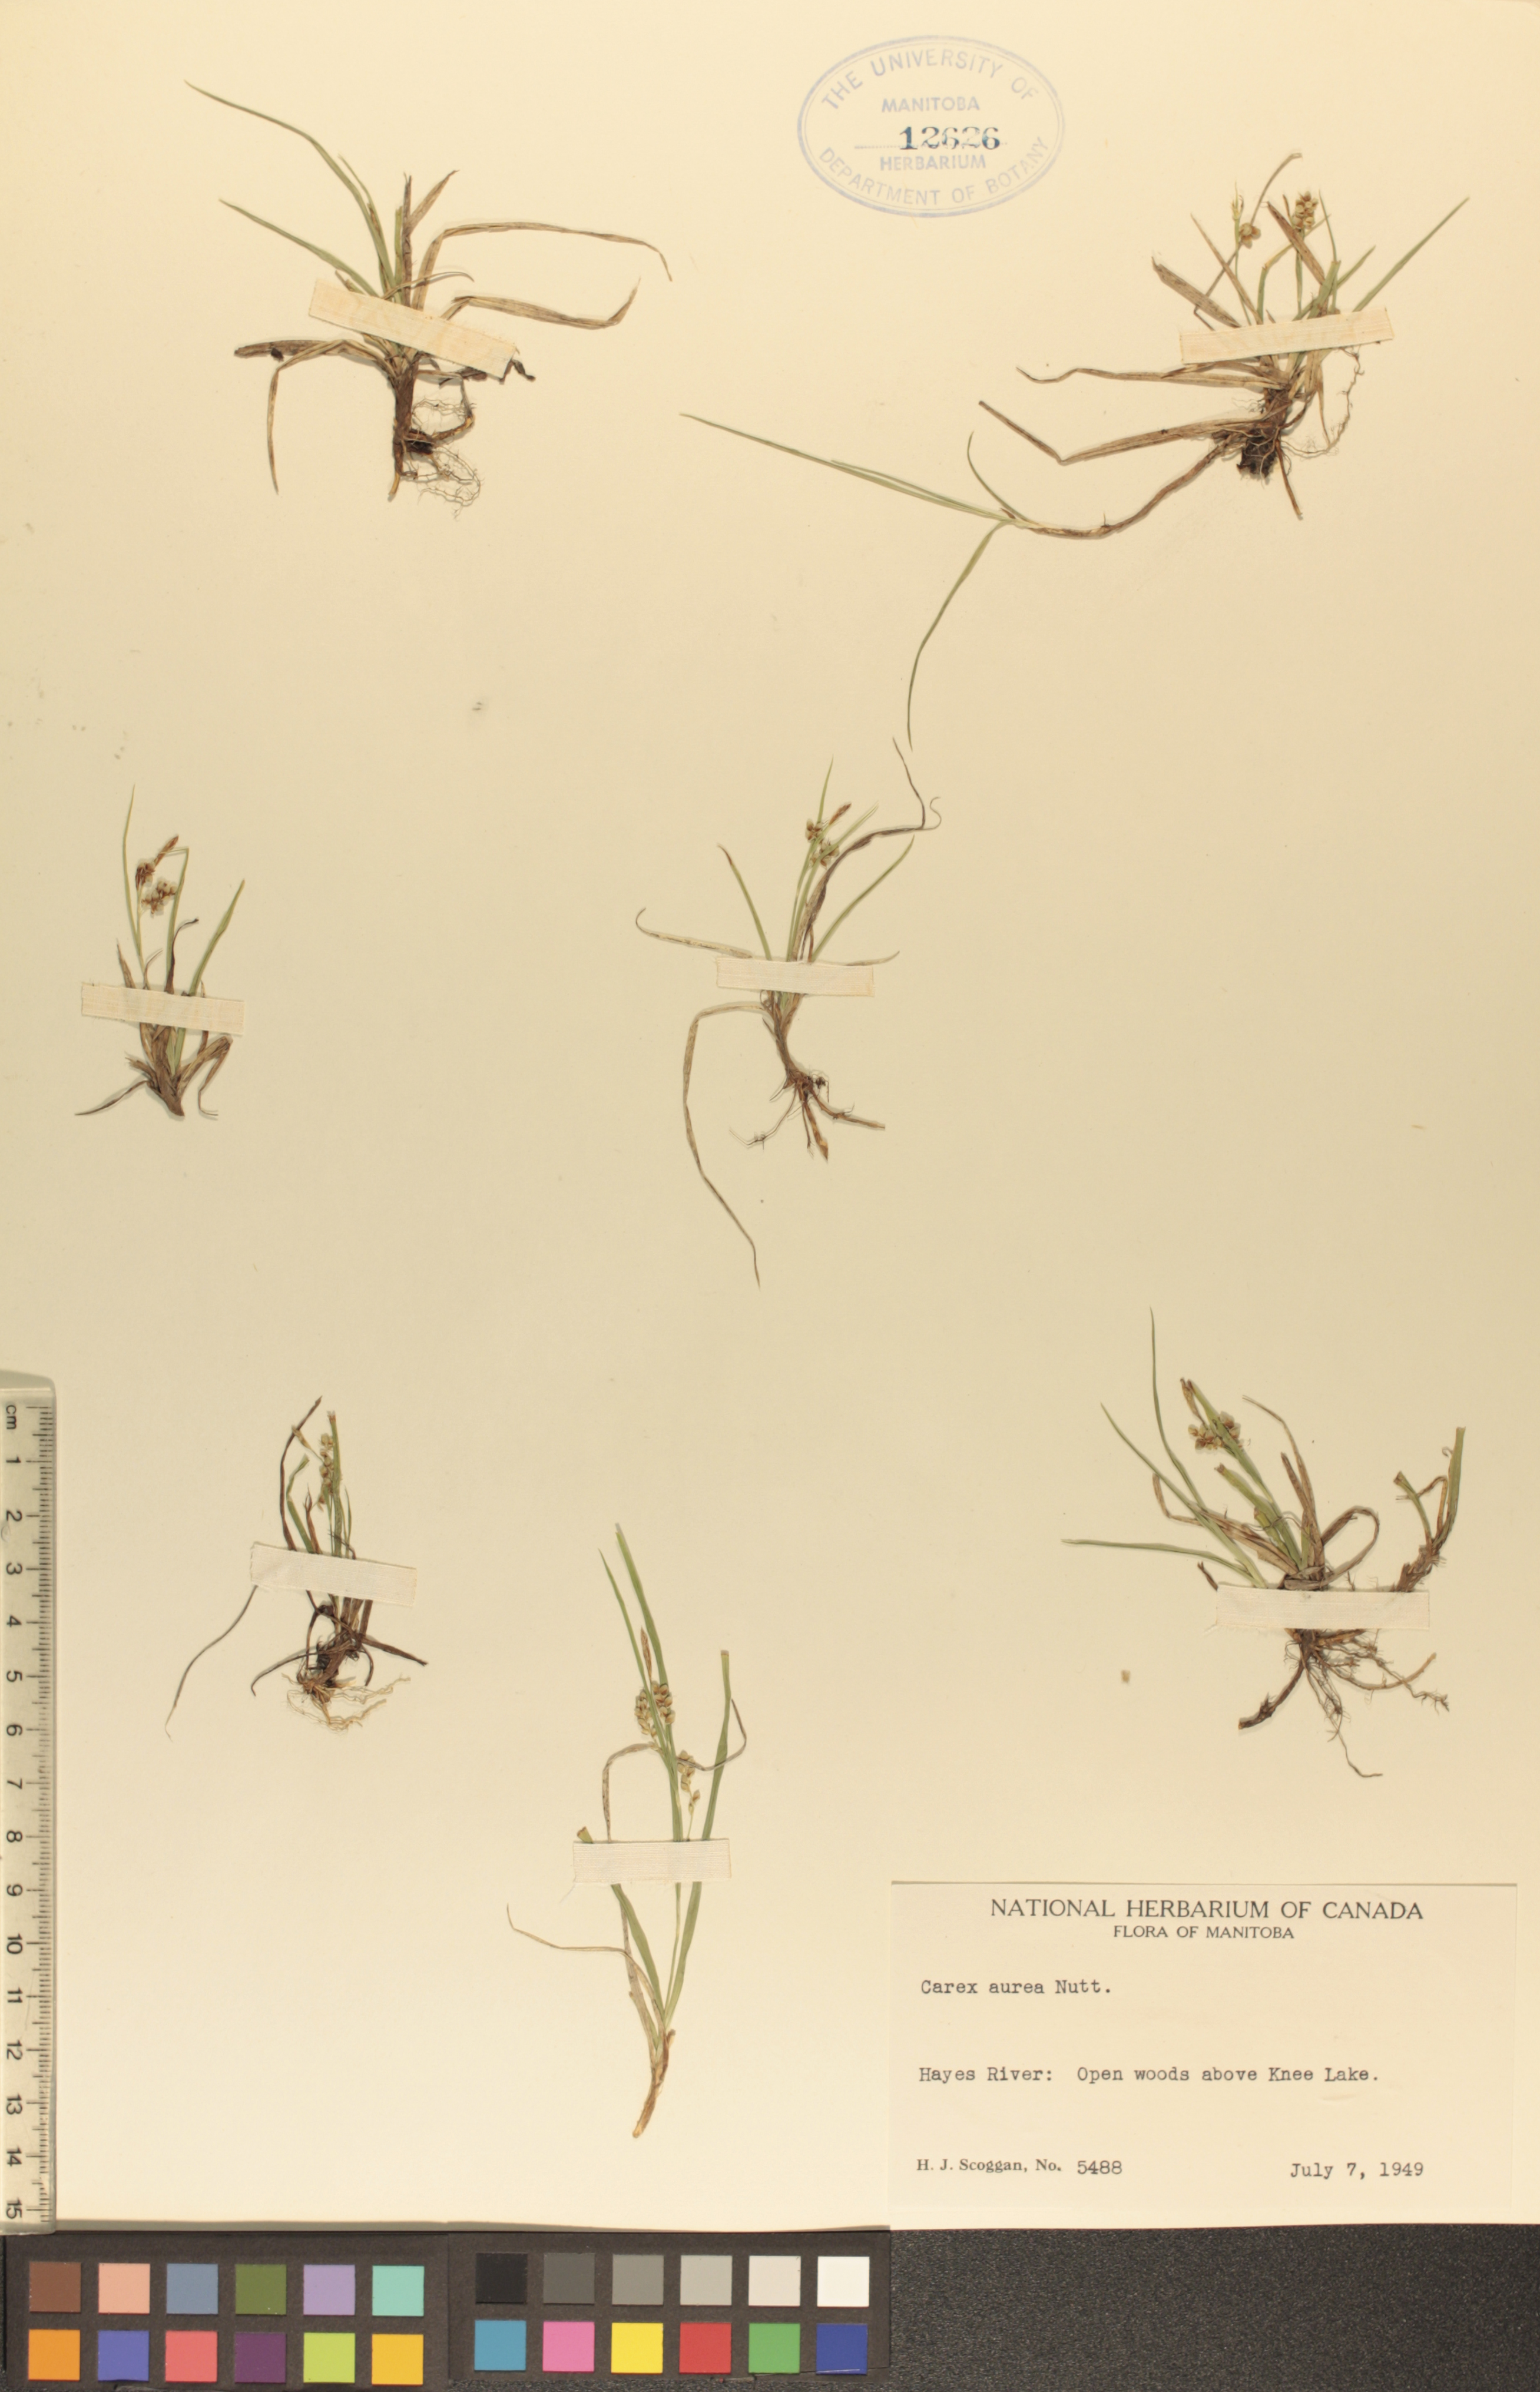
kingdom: Plantae
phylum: Tracheophyta
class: Liliopsida
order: Poales
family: Cyperaceae
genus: Carex
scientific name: Carex aurea
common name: Golden sedge
